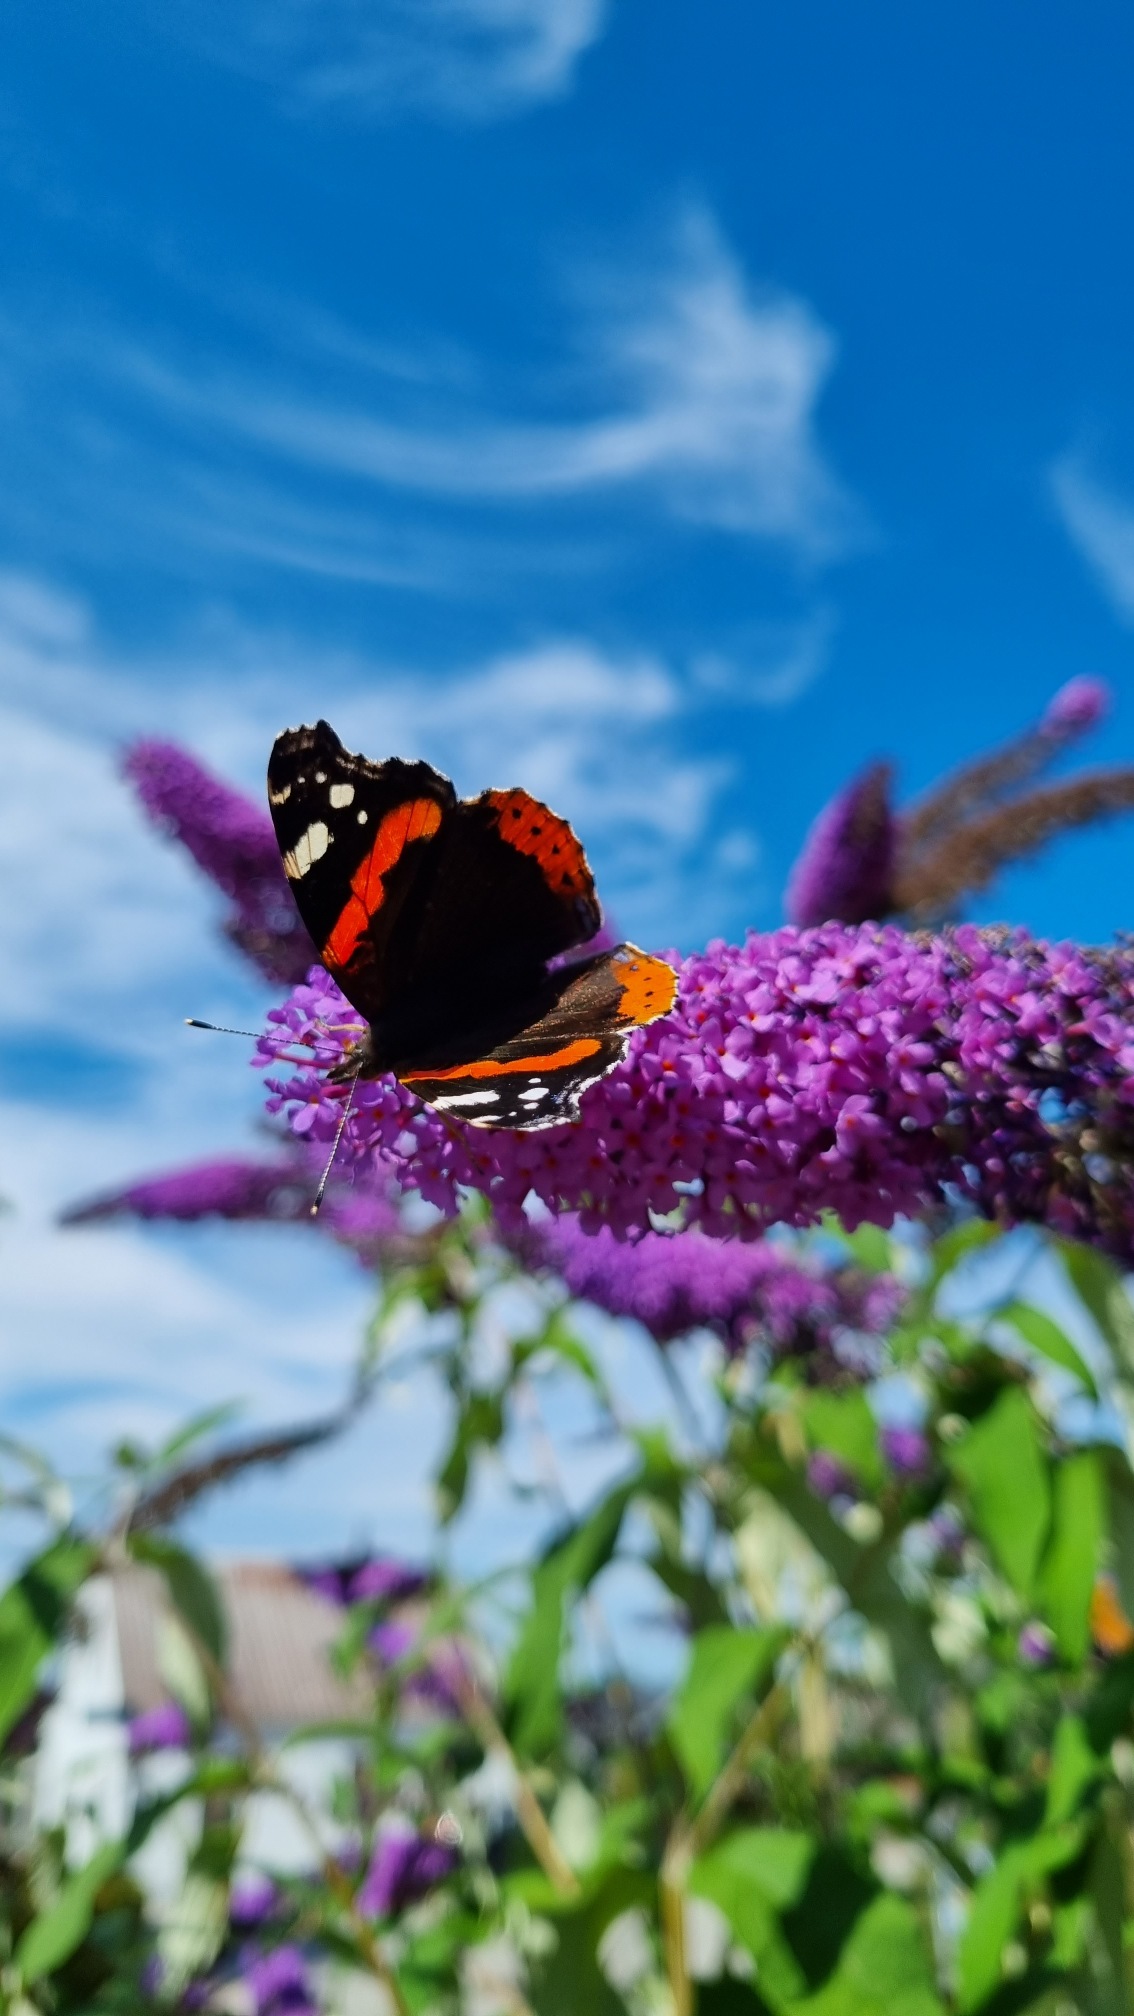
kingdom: Animalia
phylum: Arthropoda
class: Insecta
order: Lepidoptera
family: Nymphalidae
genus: Vanessa
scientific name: Vanessa atalanta
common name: Admiral
